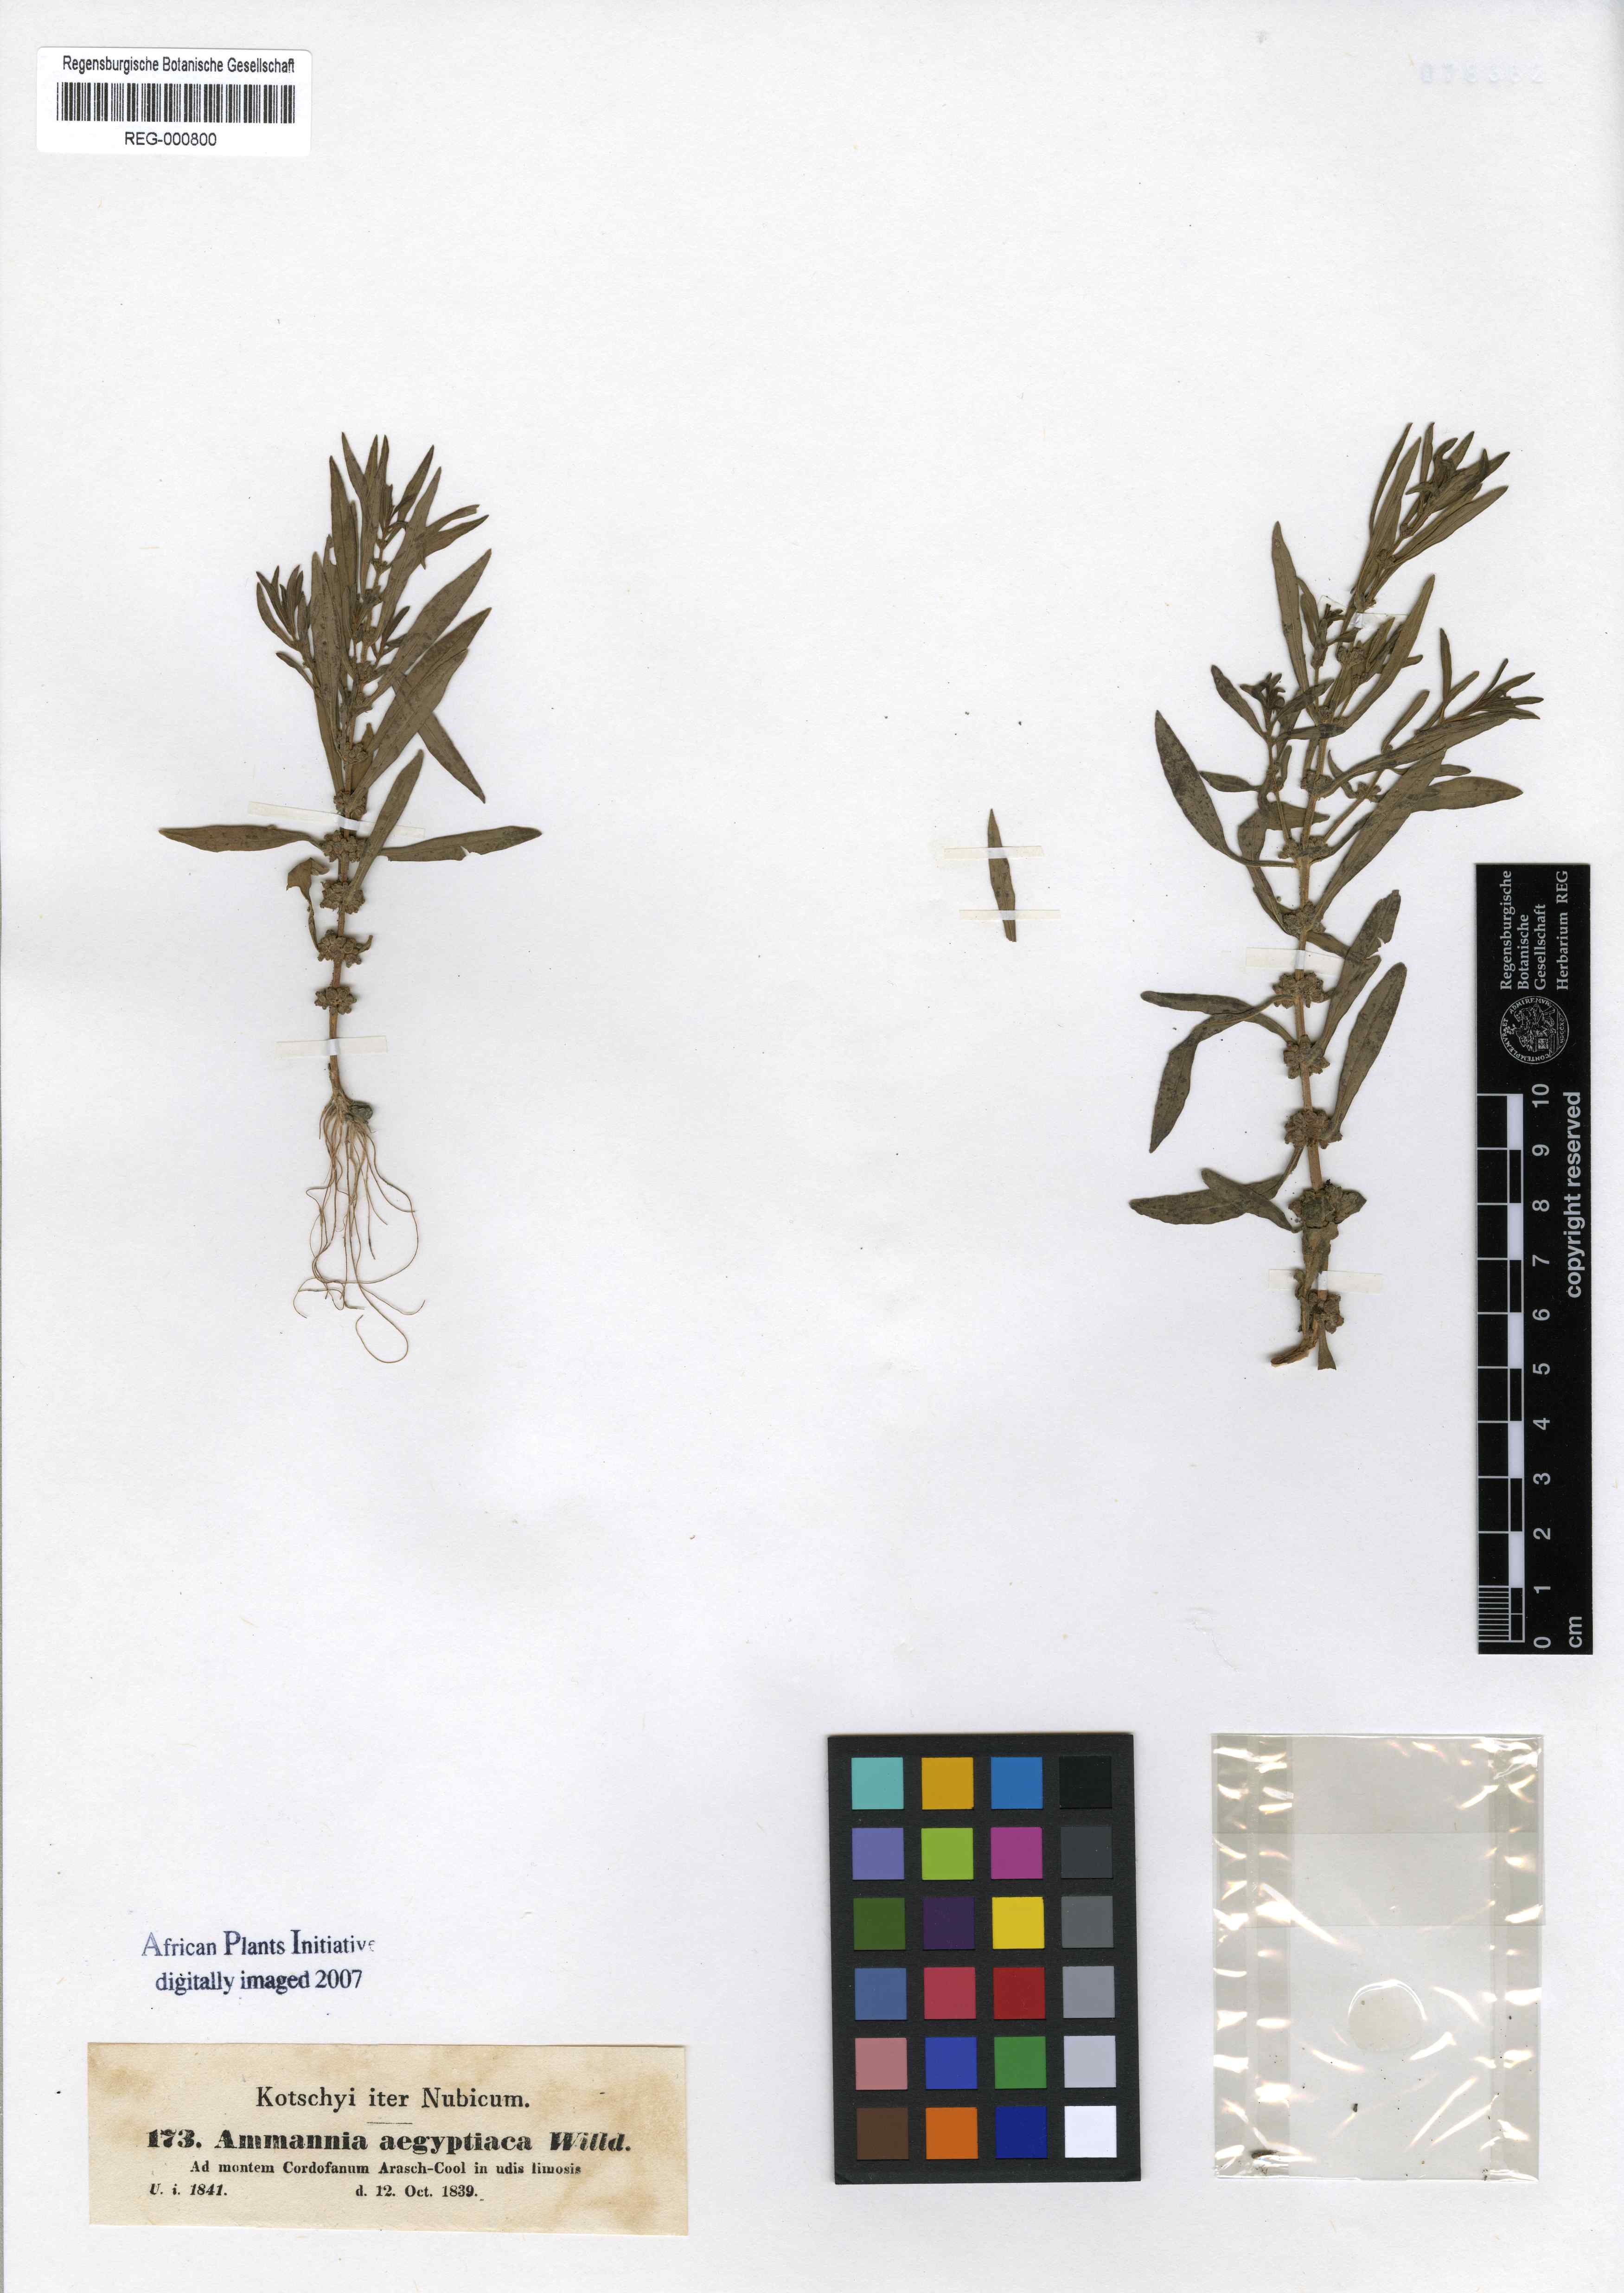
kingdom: Plantae
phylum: Tracheophyta
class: Magnoliopsida
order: Myrtales
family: Lythraceae
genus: Ammannia
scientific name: Ammannia baccifera
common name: Blistering ammania
